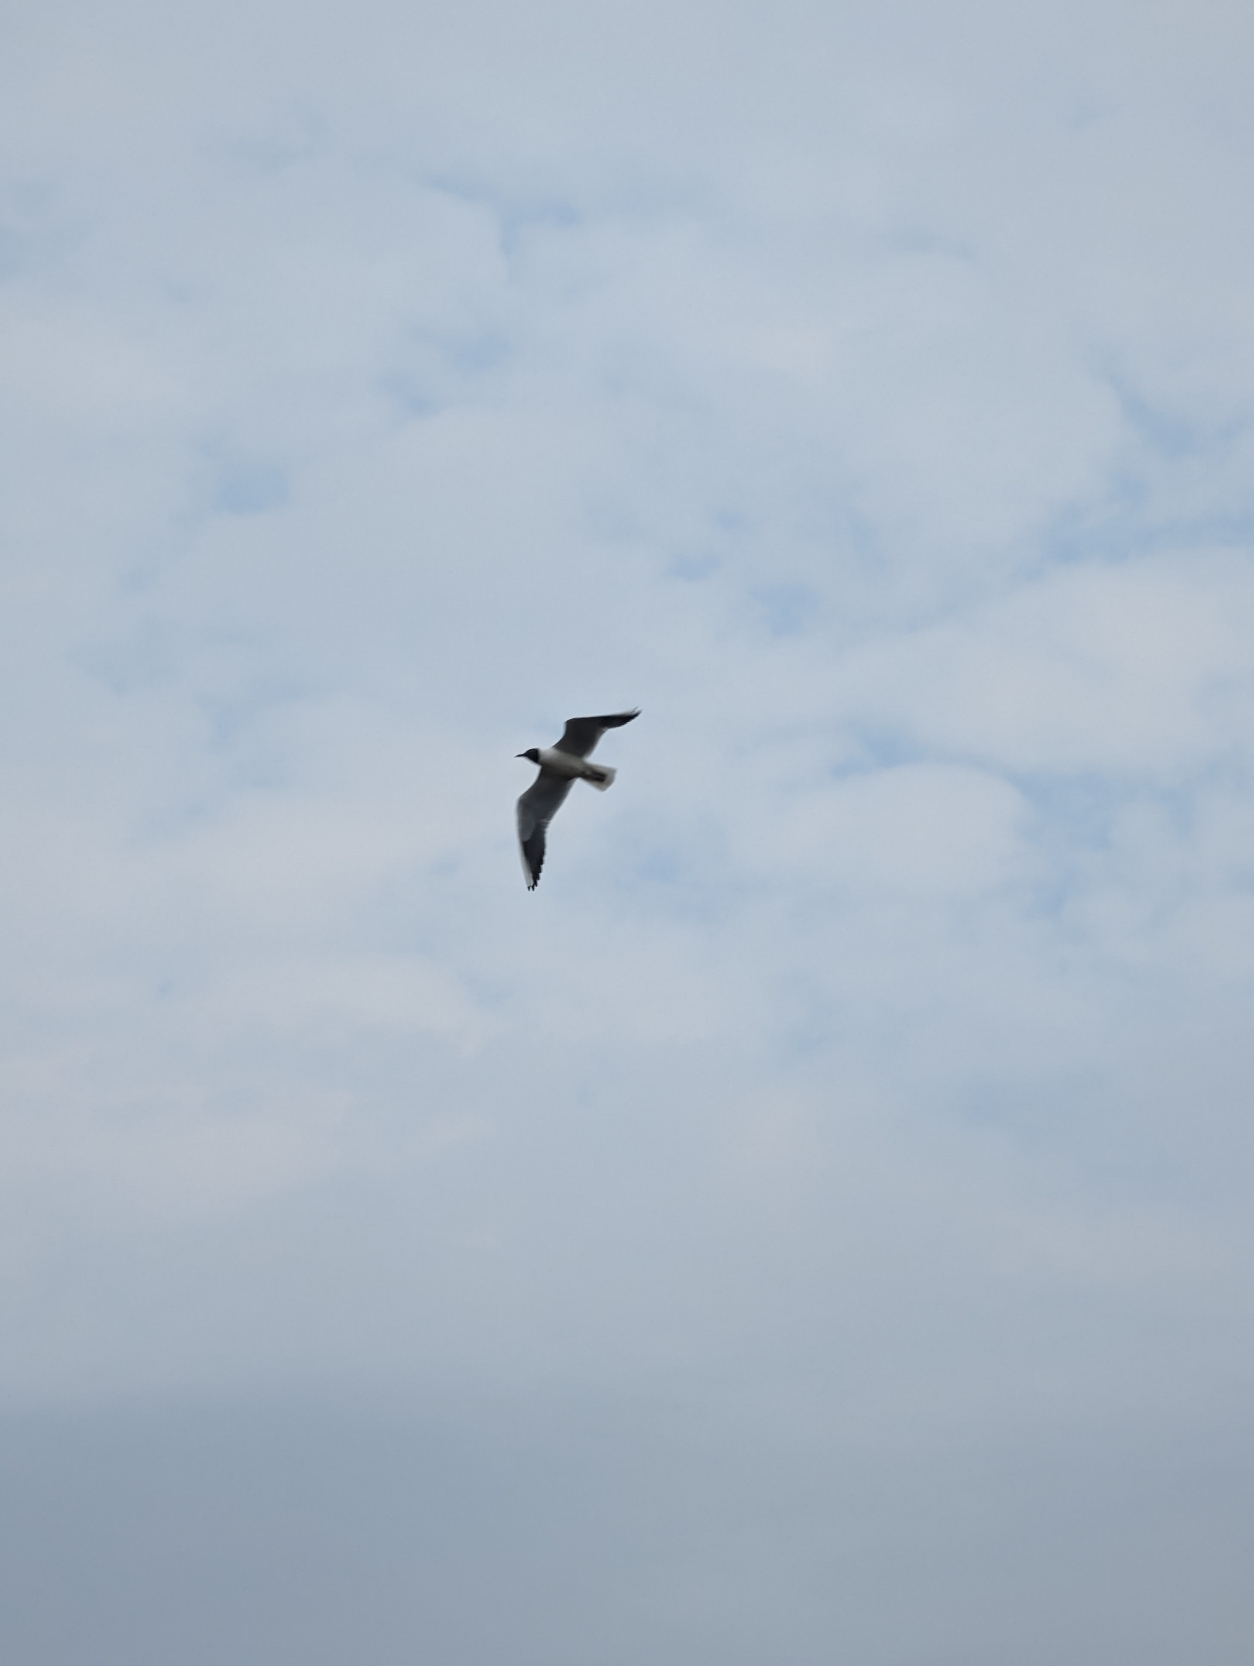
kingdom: Animalia
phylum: Chordata
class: Aves
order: Charadriiformes
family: Laridae
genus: Chroicocephalus
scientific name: Chroicocephalus ridibundus
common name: Hættemåge
